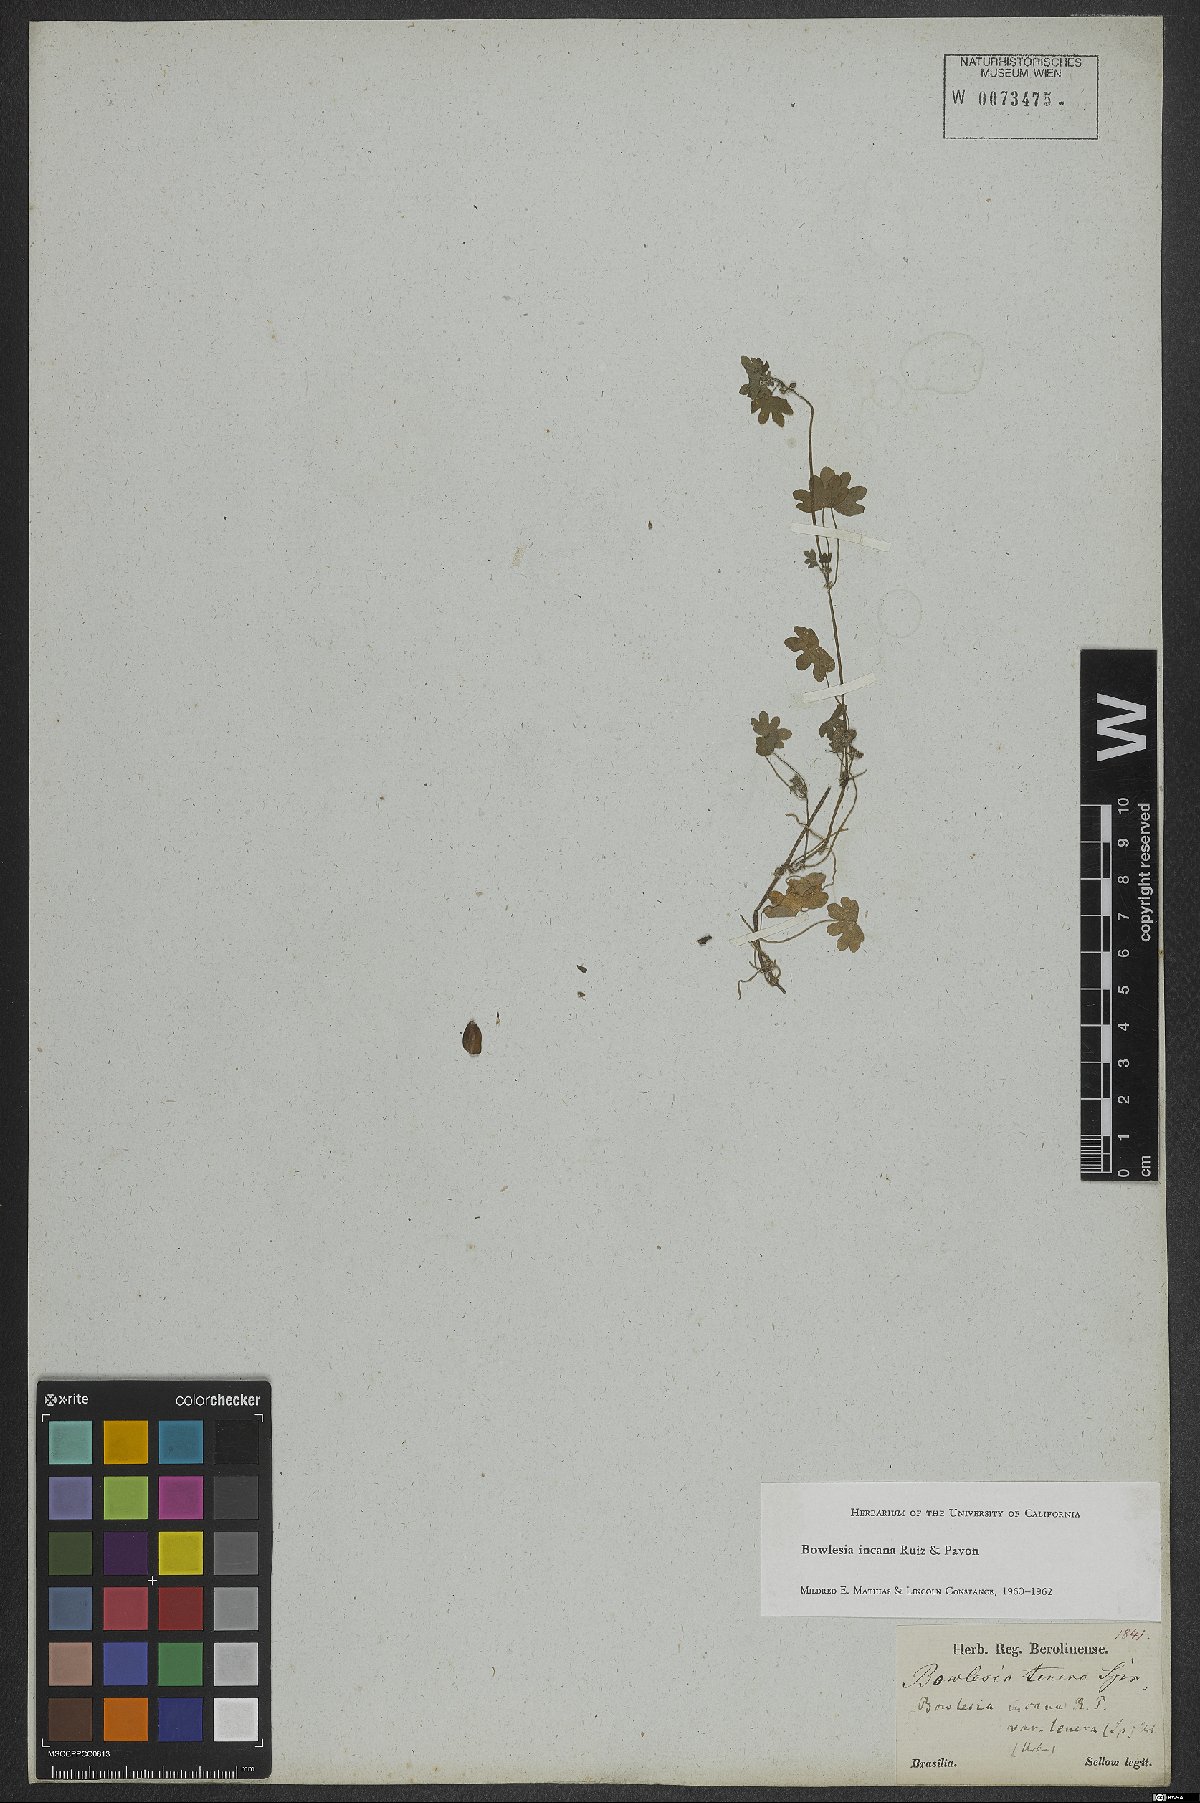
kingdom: Plantae
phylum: Tracheophyta
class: Magnoliopsida
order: Apiales
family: Apiaceae
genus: Bowlesia
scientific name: Bowlesia incana
